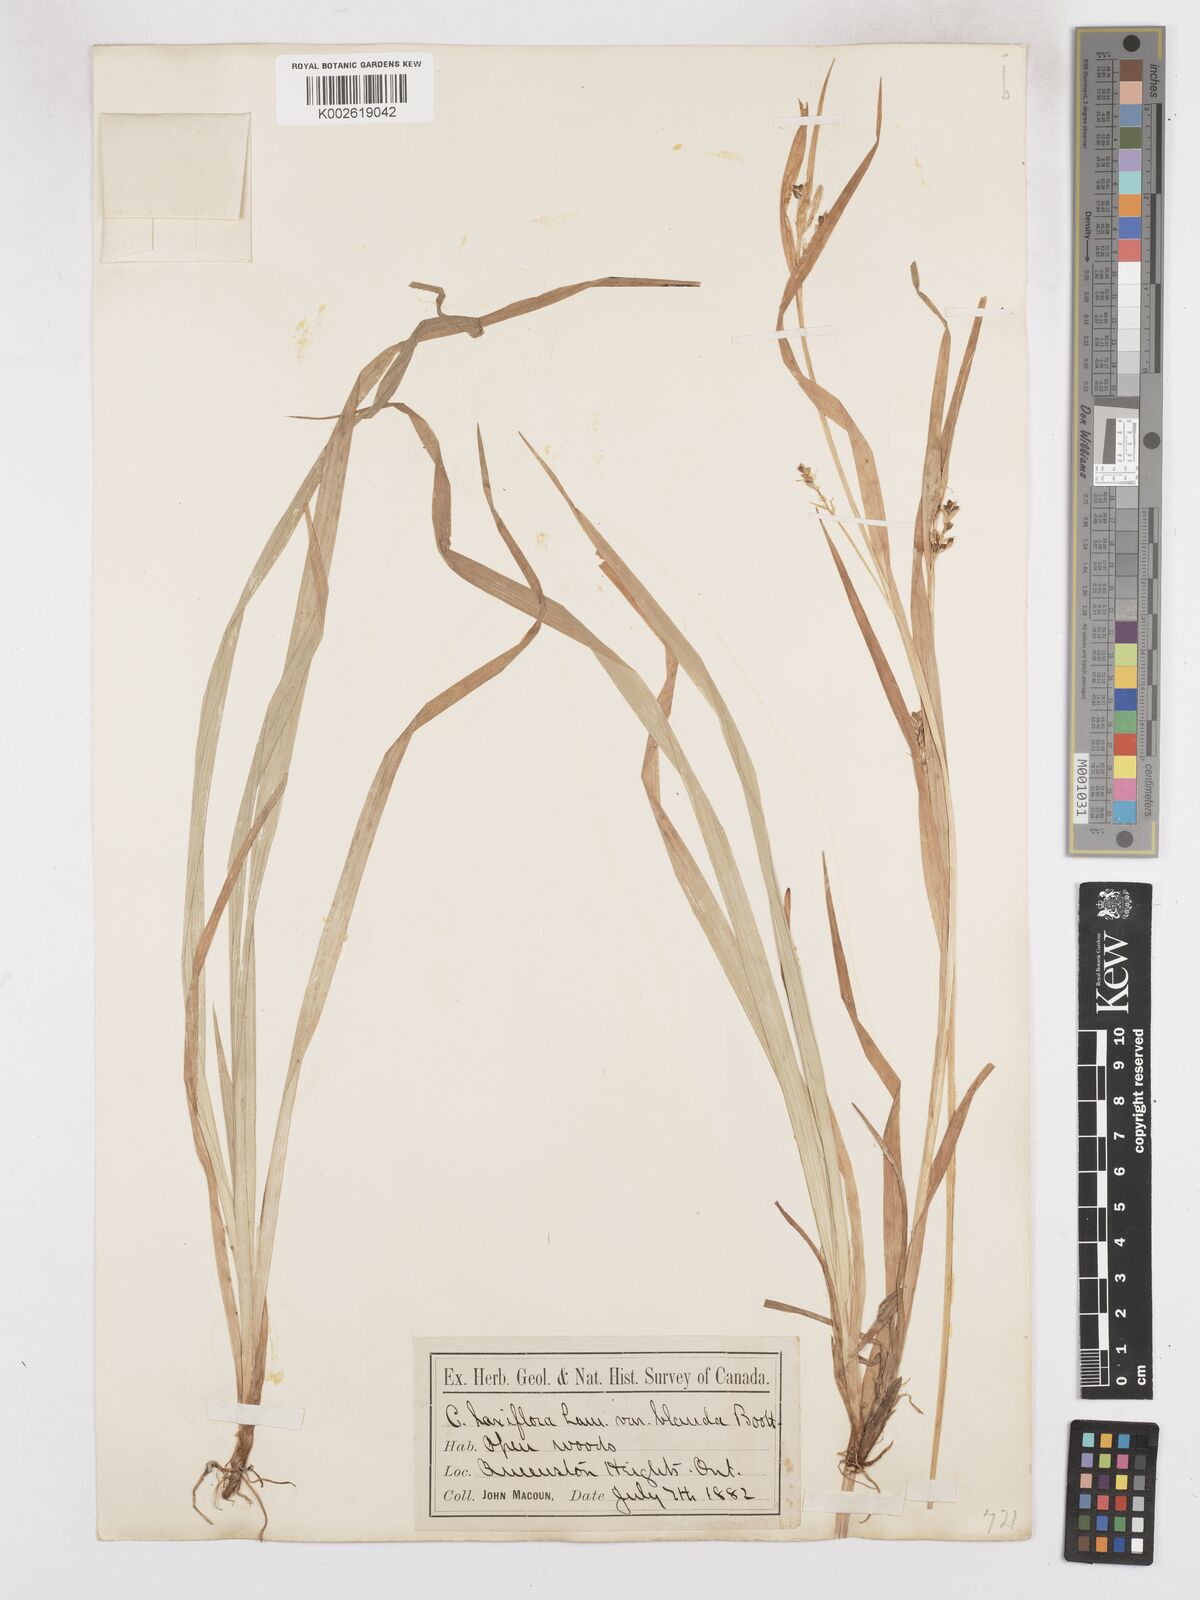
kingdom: Plantae
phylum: Tracheophyta
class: Liliopsida
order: Poales
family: Cyperaceae
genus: Carex
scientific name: Carex blanda
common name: Bland sedge
